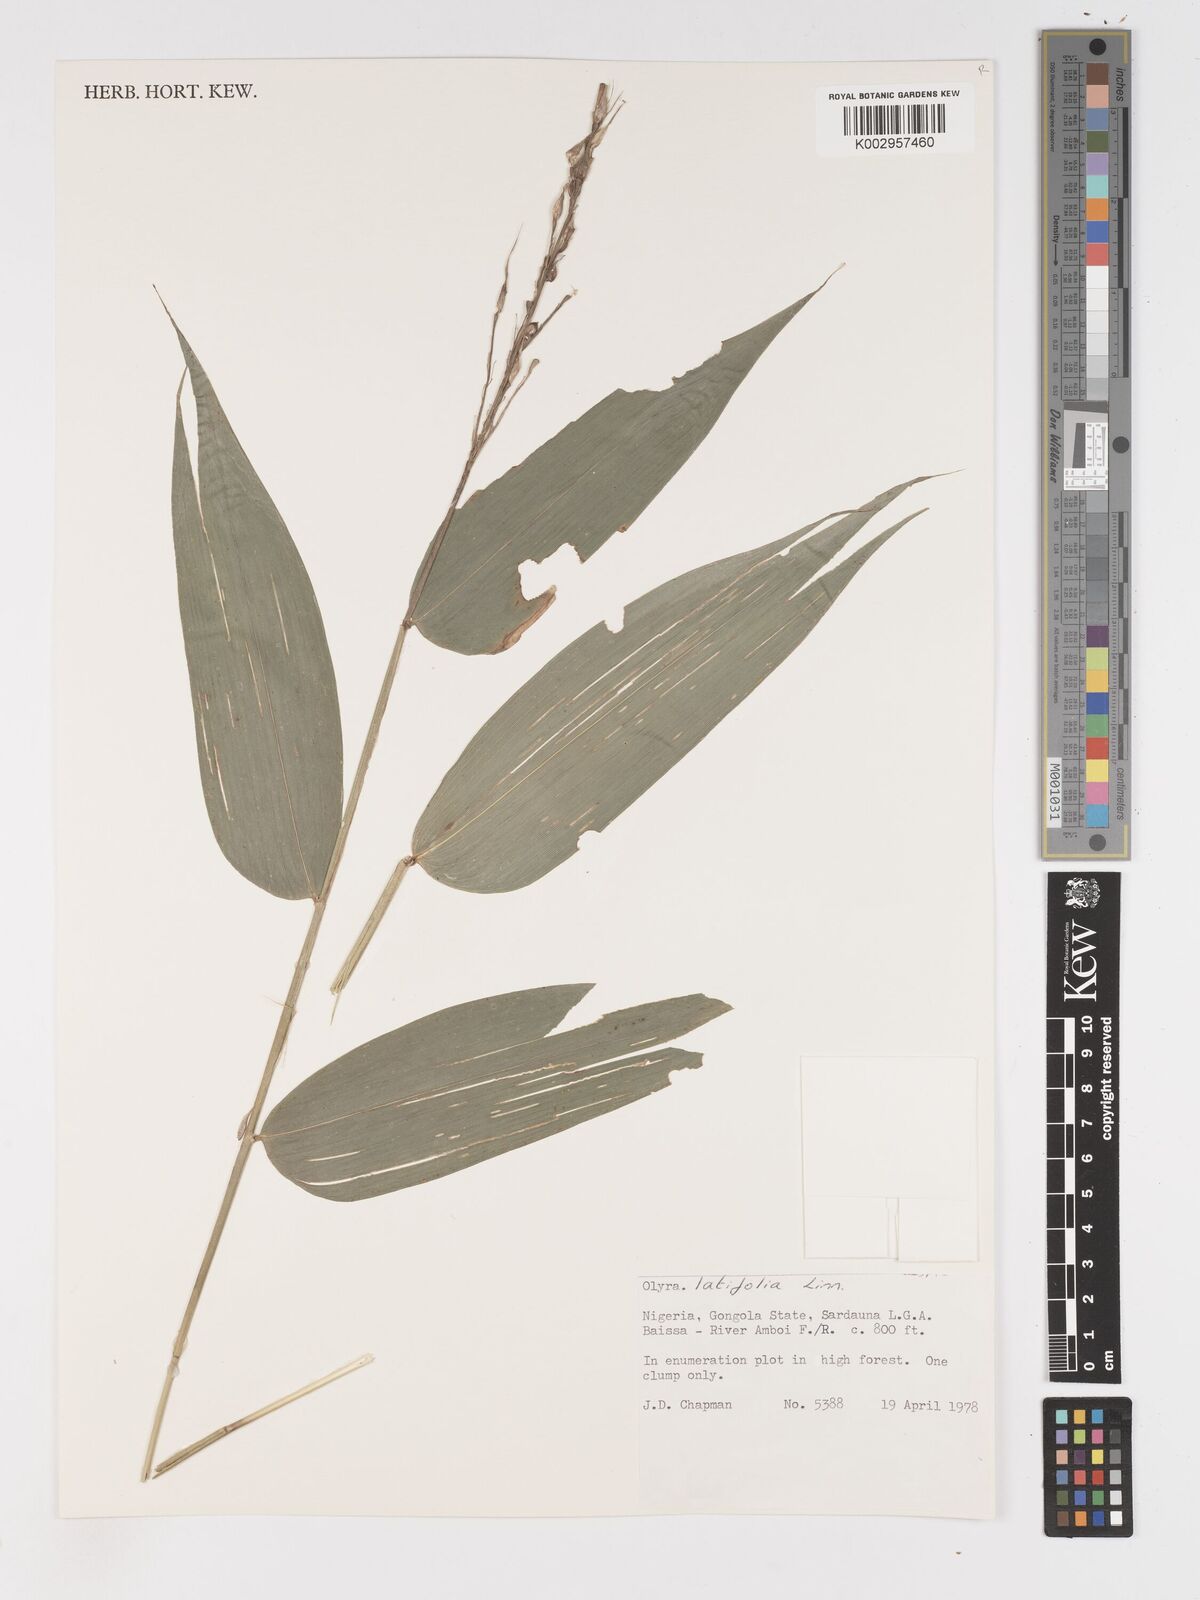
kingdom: Plantae
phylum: Tracheophyta
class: Liliopsida
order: Poales
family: Poaceae
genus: Olyra
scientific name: Olyra latifolia
